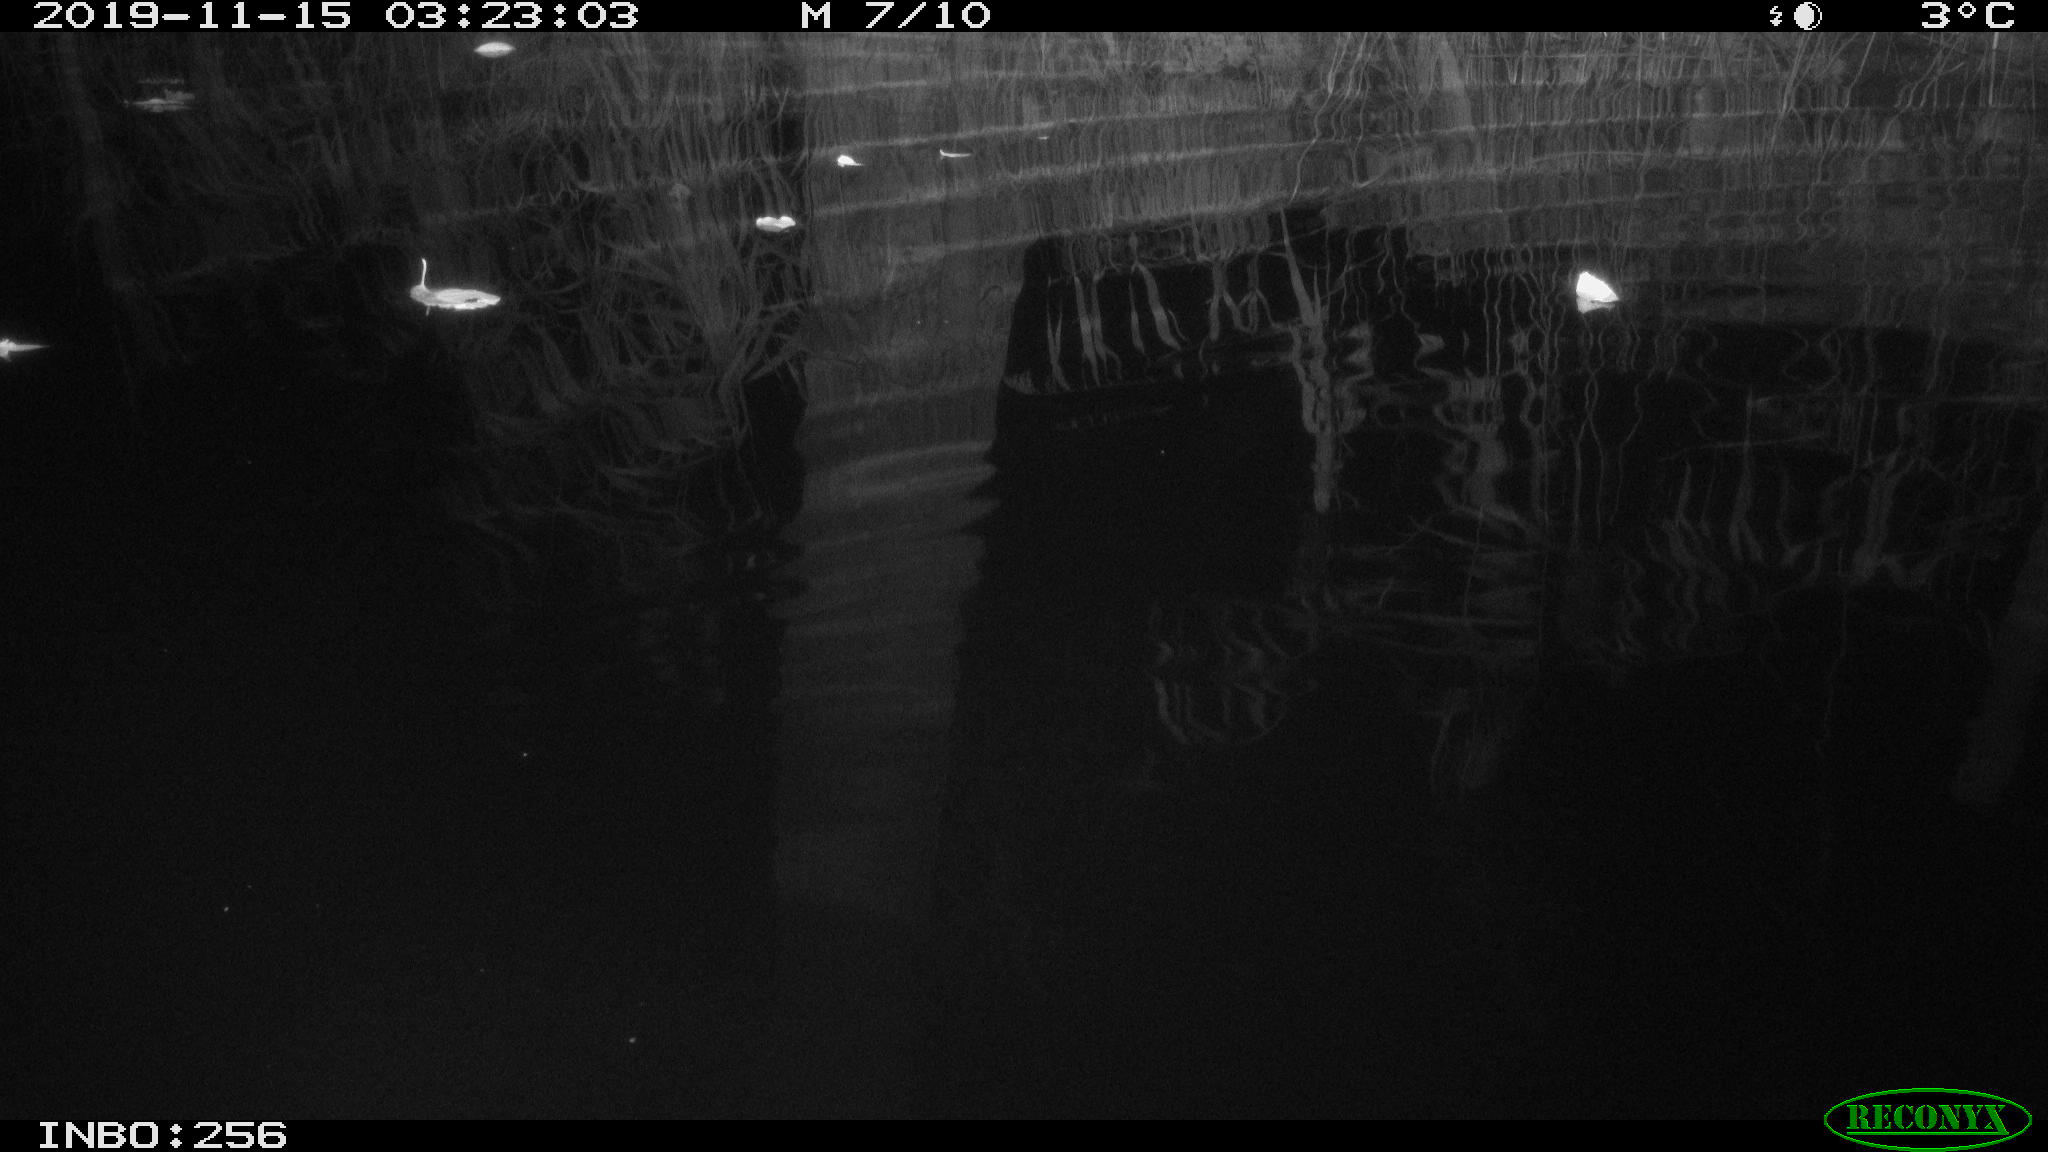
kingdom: Animalia
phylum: Chordata
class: Mammalia
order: Rodentia
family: Muridae
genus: Rattus
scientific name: Rattus norvegicus
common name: Brown rat
